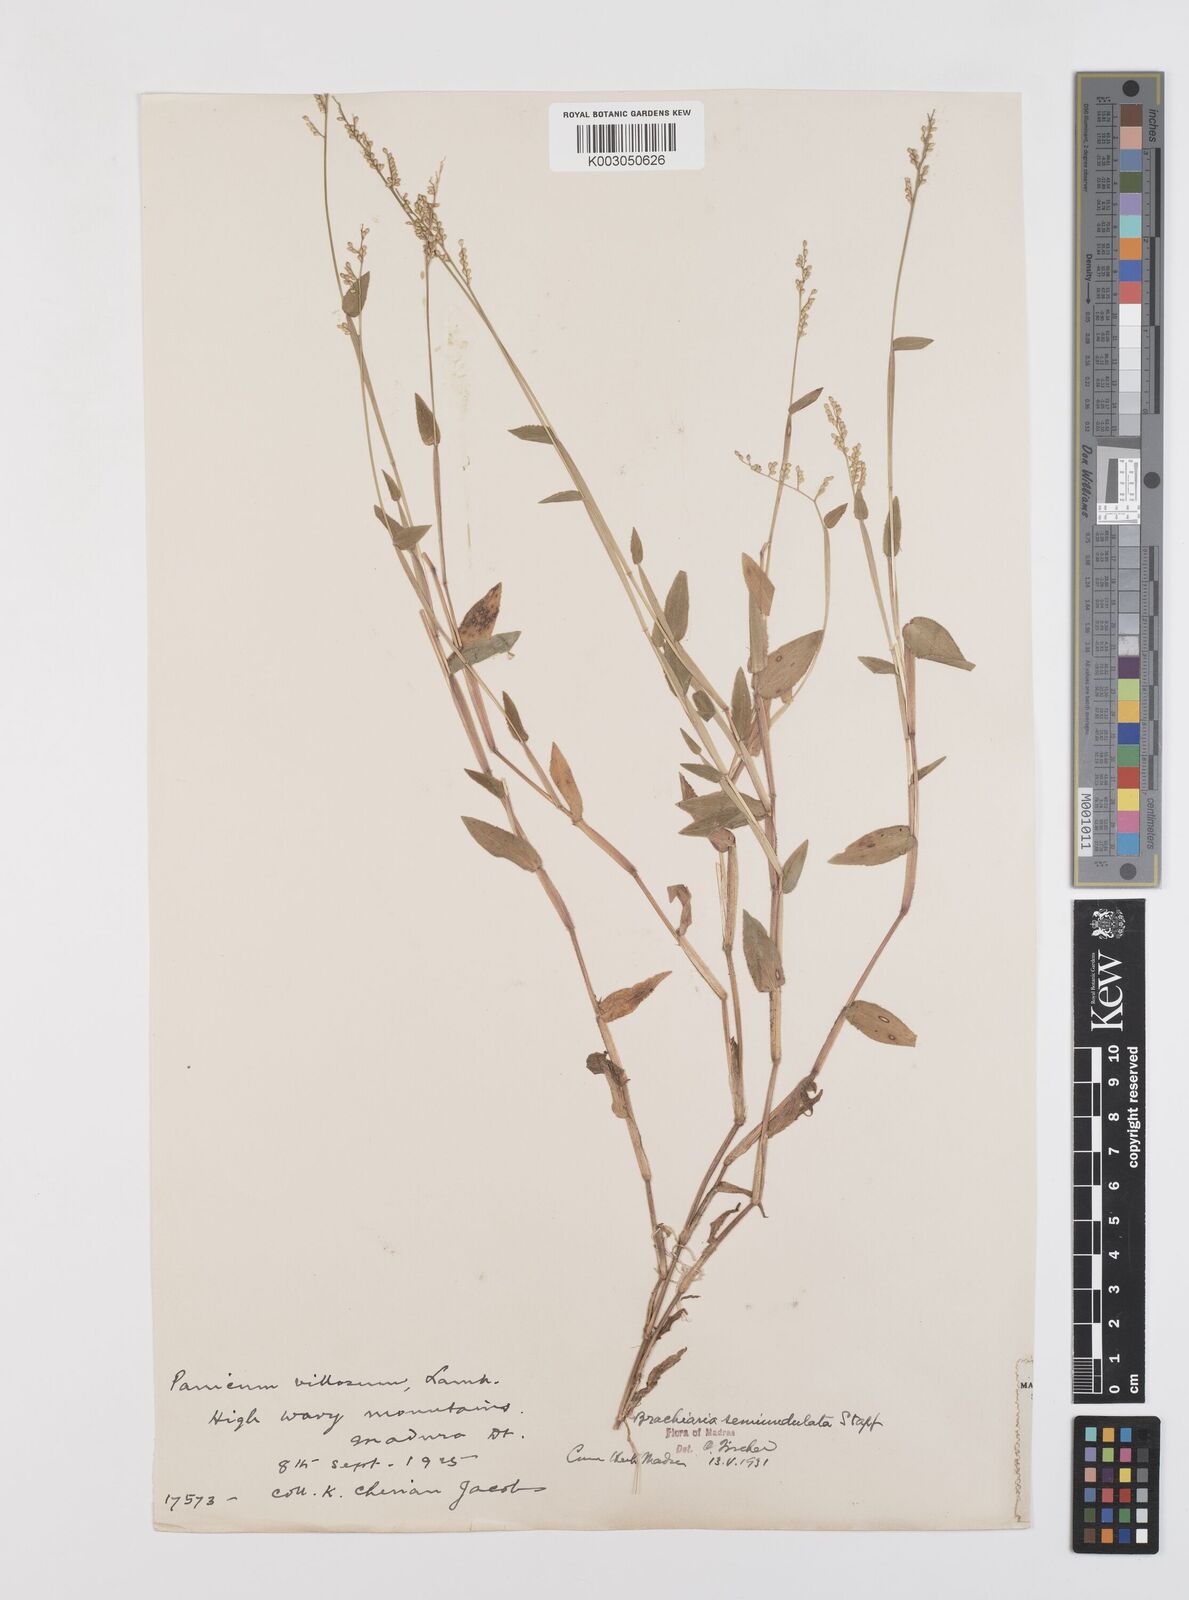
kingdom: Plantae
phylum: Tracheophyta
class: Liliopsida
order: Poales
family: Poaceae
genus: Urochloa
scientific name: Urochloa semiundulata
